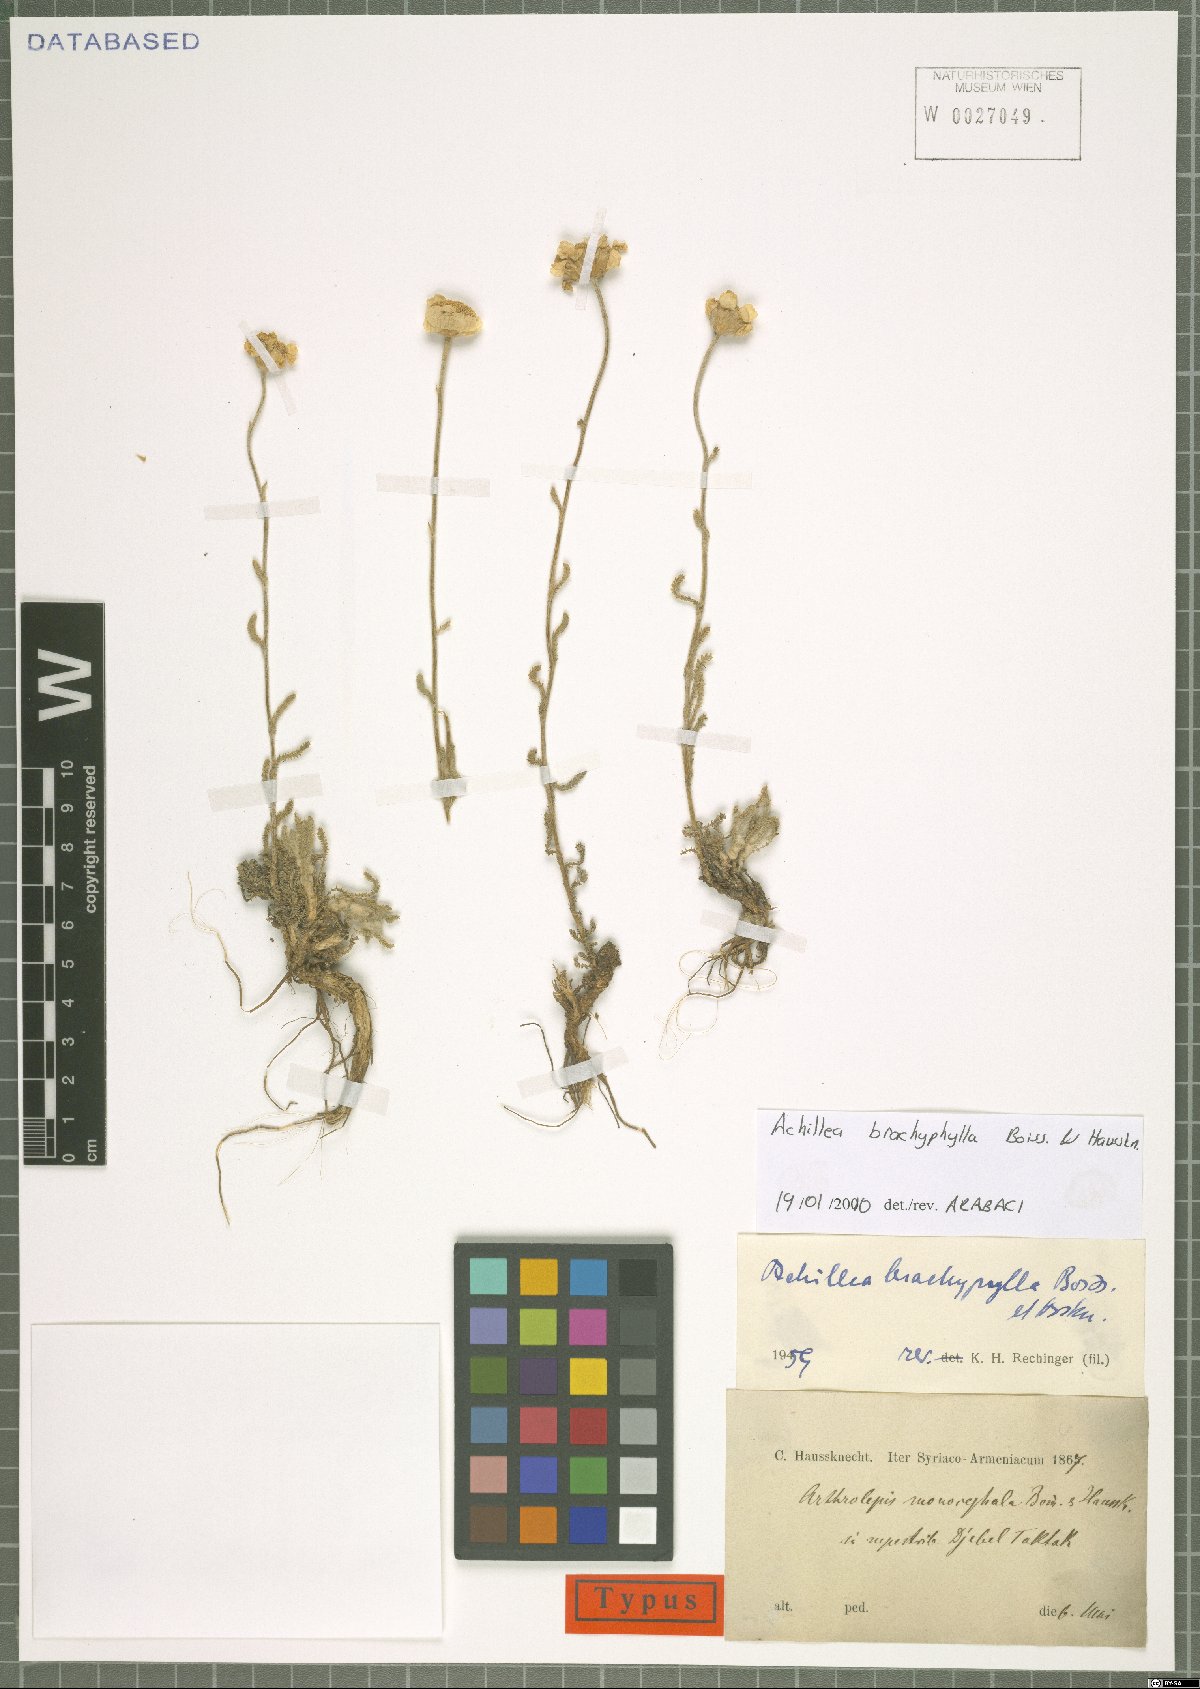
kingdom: Plantae
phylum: Tracheophyta
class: Magnoliopsida
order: Asterales
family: Asteraceae
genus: Achillea
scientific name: Achillea brachyphylla
